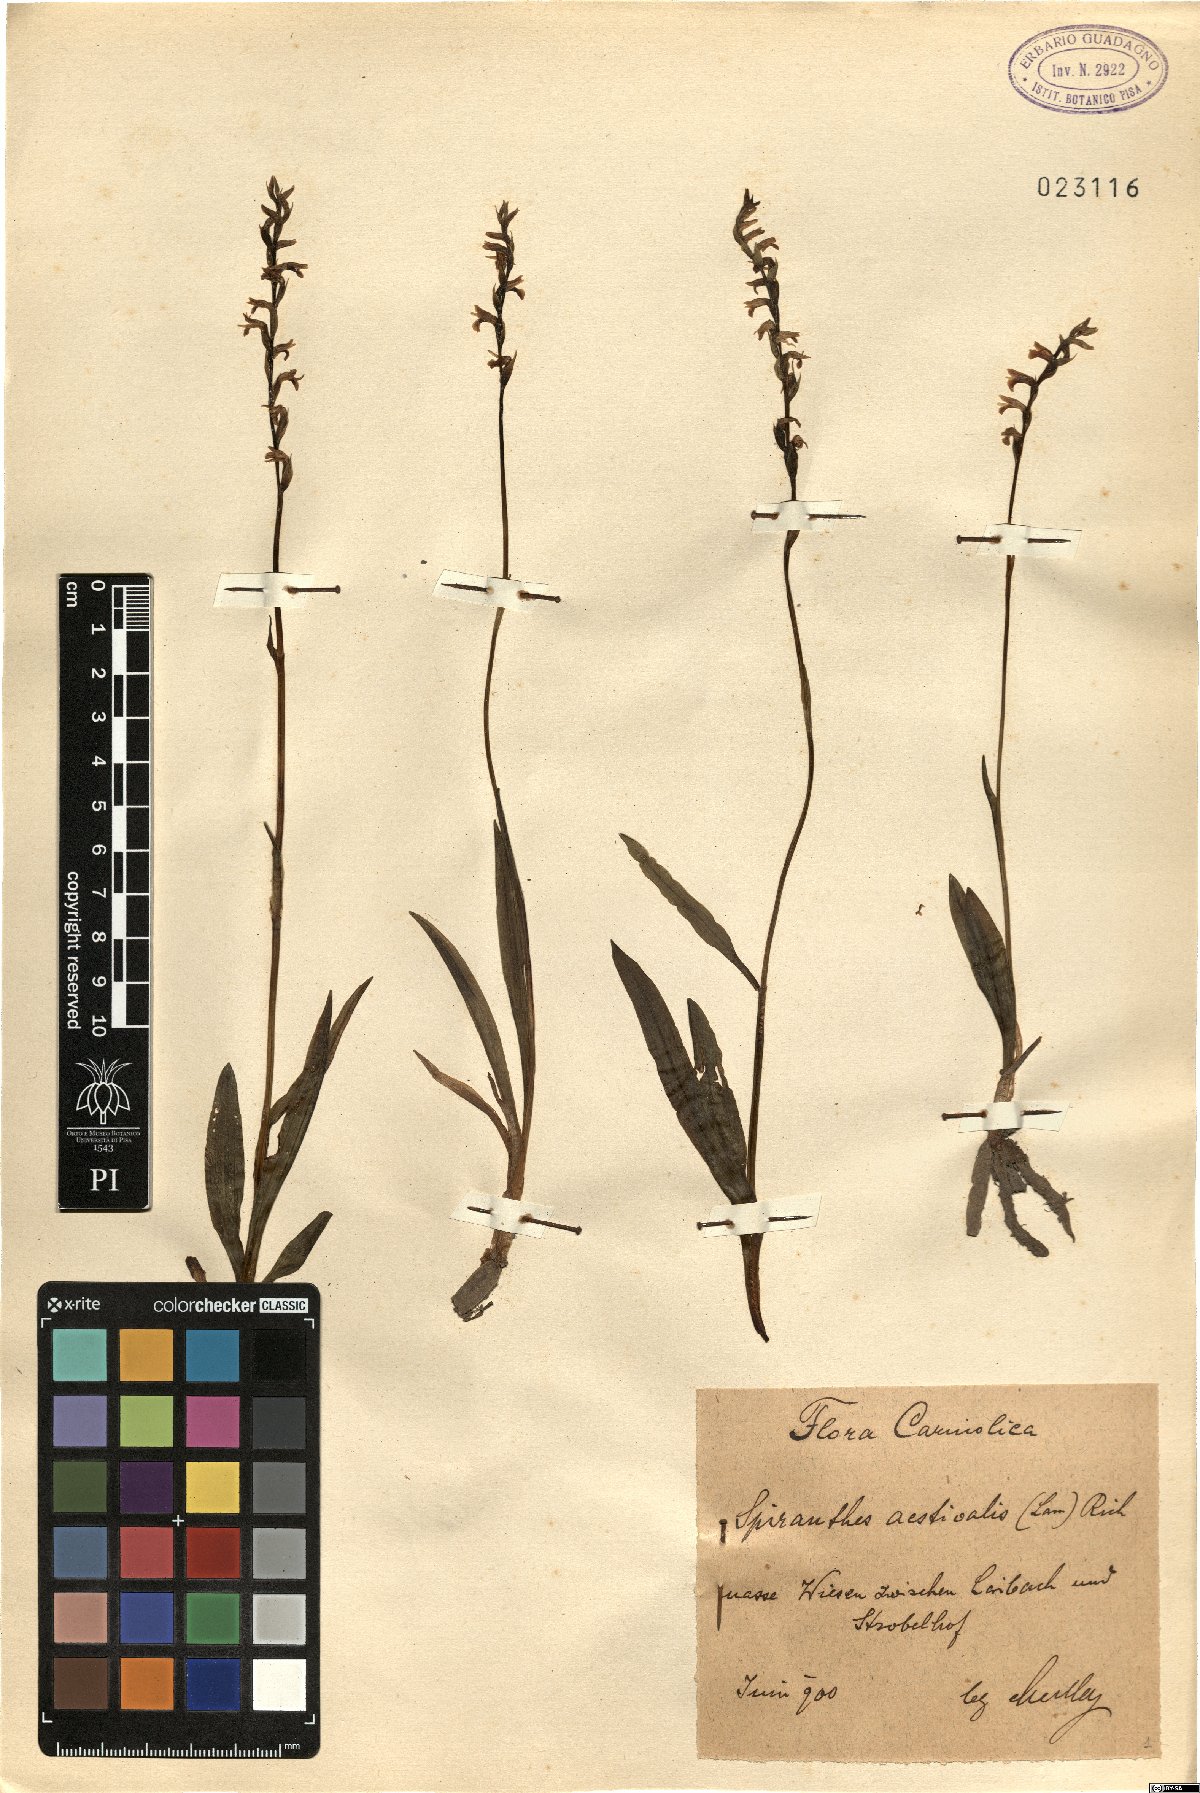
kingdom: Plantae
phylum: Tracheophyta
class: Liliopsida
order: Asparagales
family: Orchidaceae
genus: Spiranthes
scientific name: Spiranthes aestivalis
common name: Summer lady's-tresses
